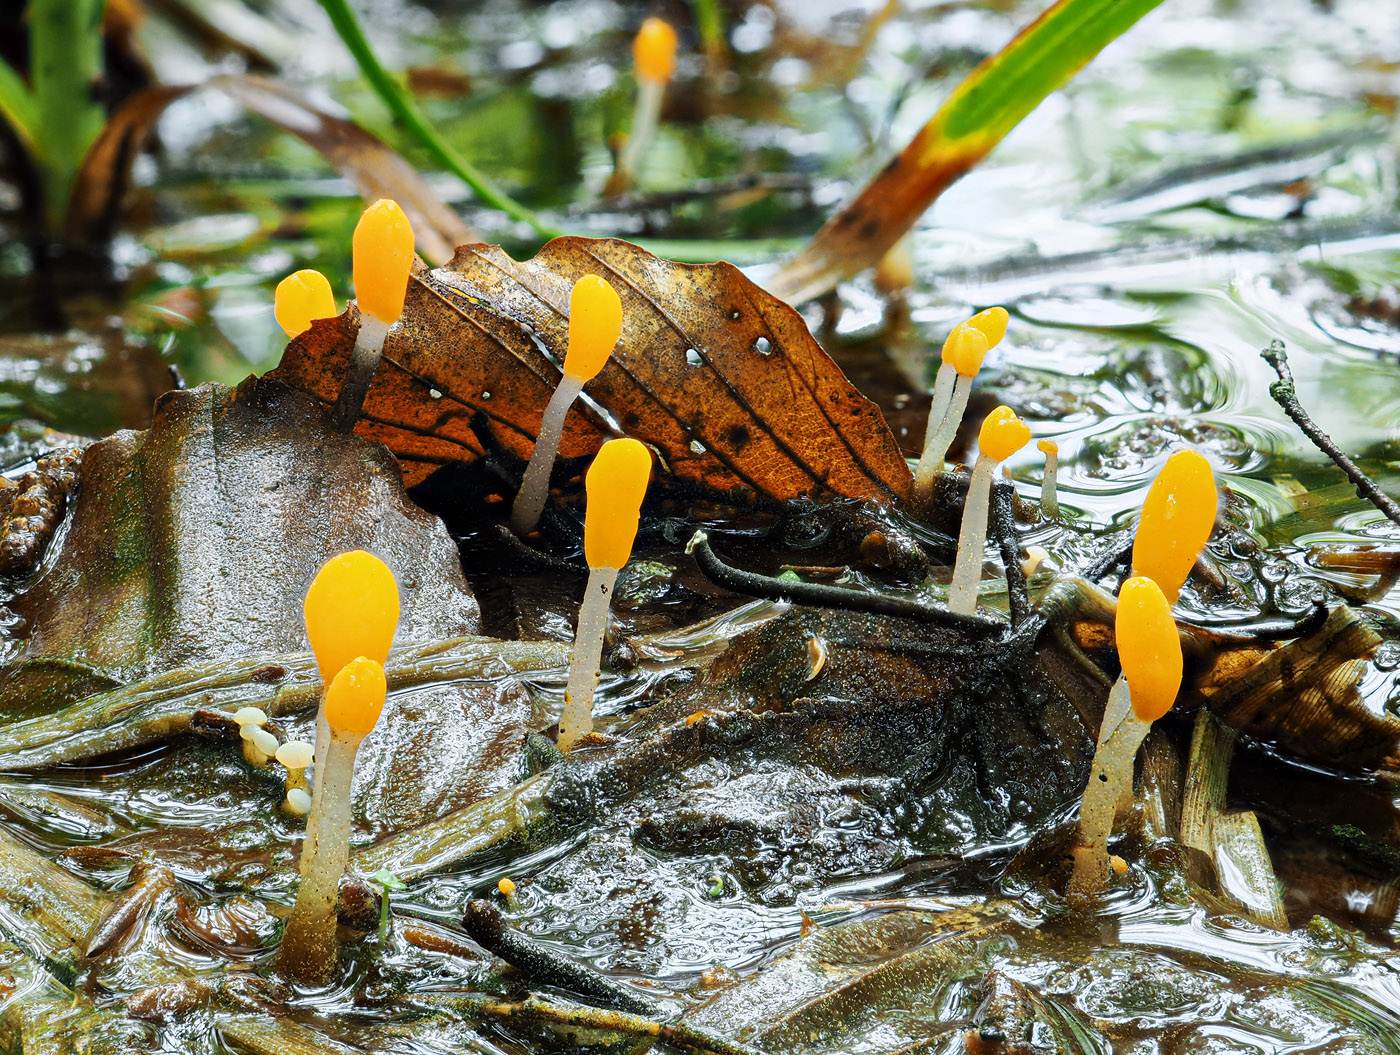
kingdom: Fungi
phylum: Ascomycota
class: Leotiomycetes
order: Helotiales
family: Cenangiaceae
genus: Mitrula
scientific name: Mitrula paludosa
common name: gul nøkketunge
